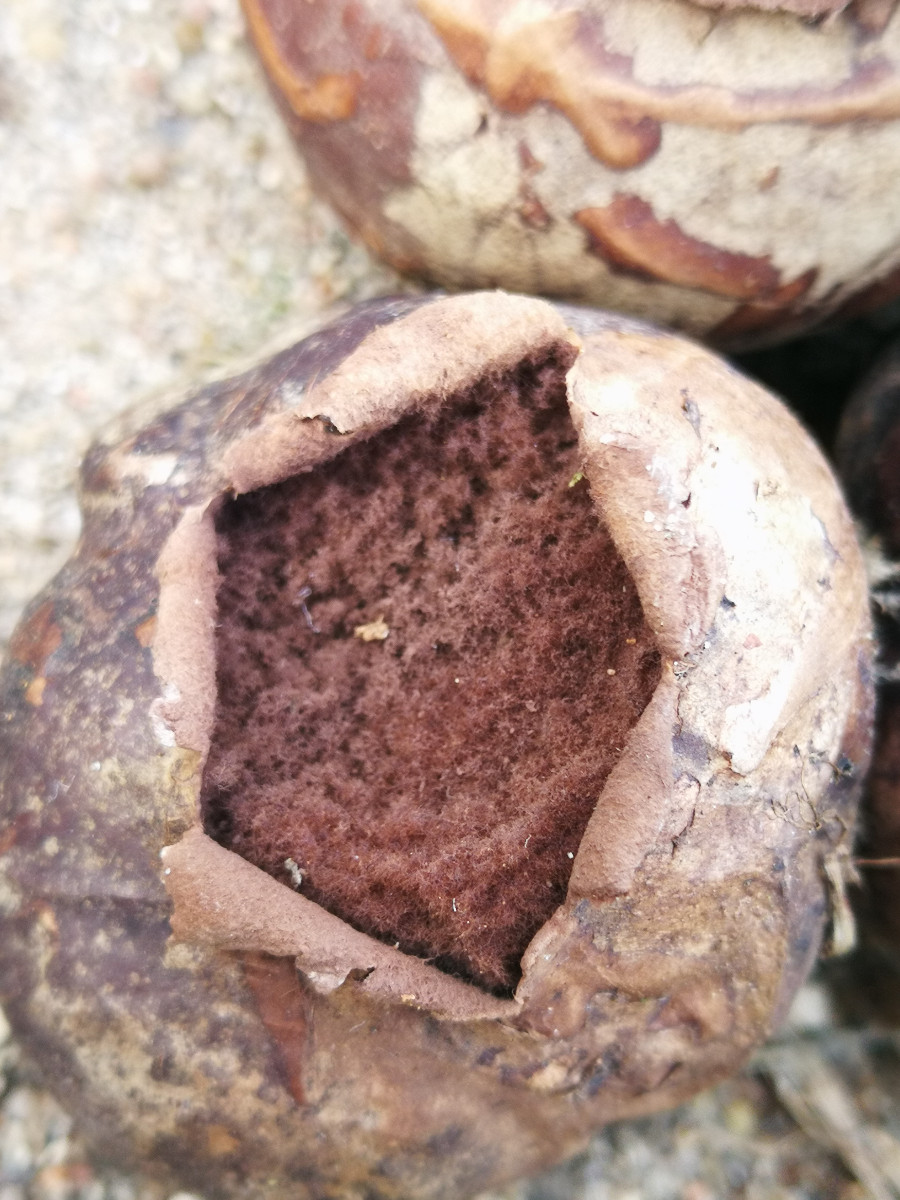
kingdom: Fungi
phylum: Basidiomycota
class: Agaricomycetes
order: Agaricales
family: Lycoperdaceae
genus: Bovista
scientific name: Bovista nigrescens
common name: sortagtig bovist
